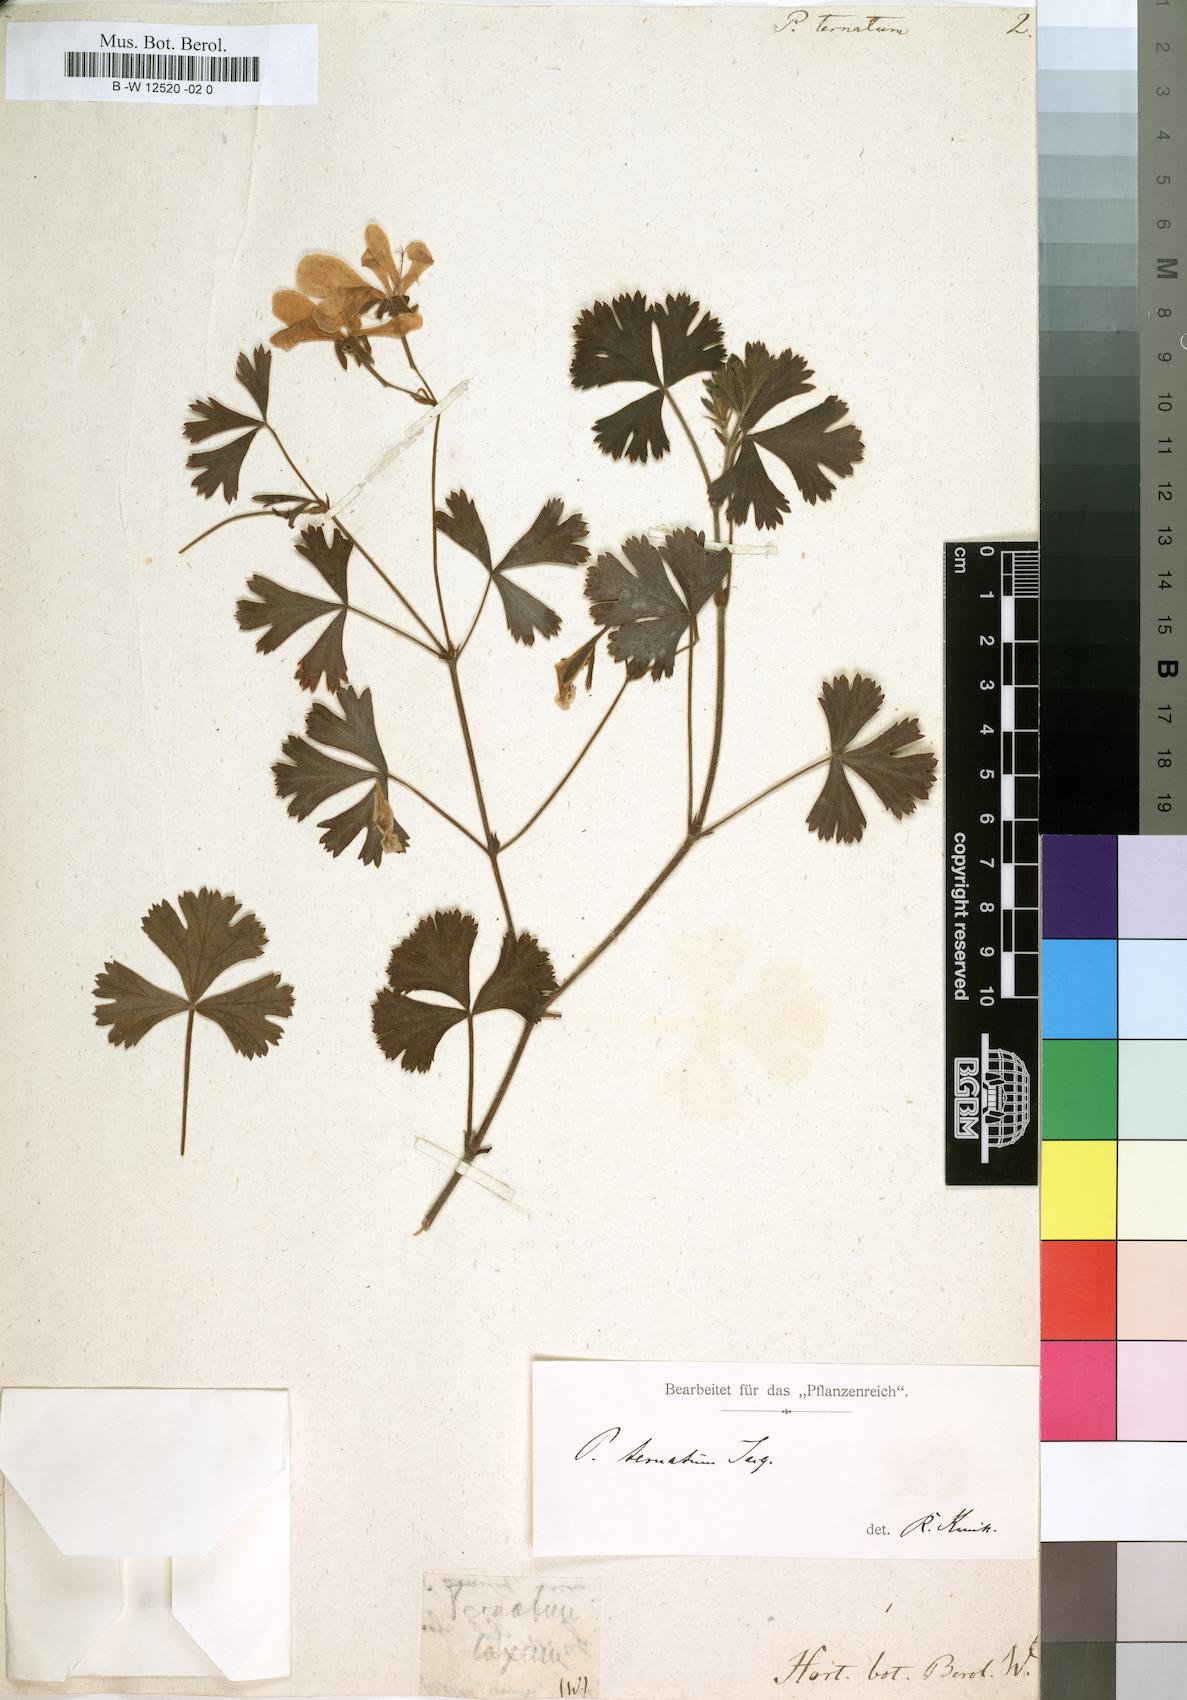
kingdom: Plantae
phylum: Tracheophyta
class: Magnoliopsida
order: Geraniales
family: Geraniaceae
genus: Pelargonium
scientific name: Pelargonium ternatum
